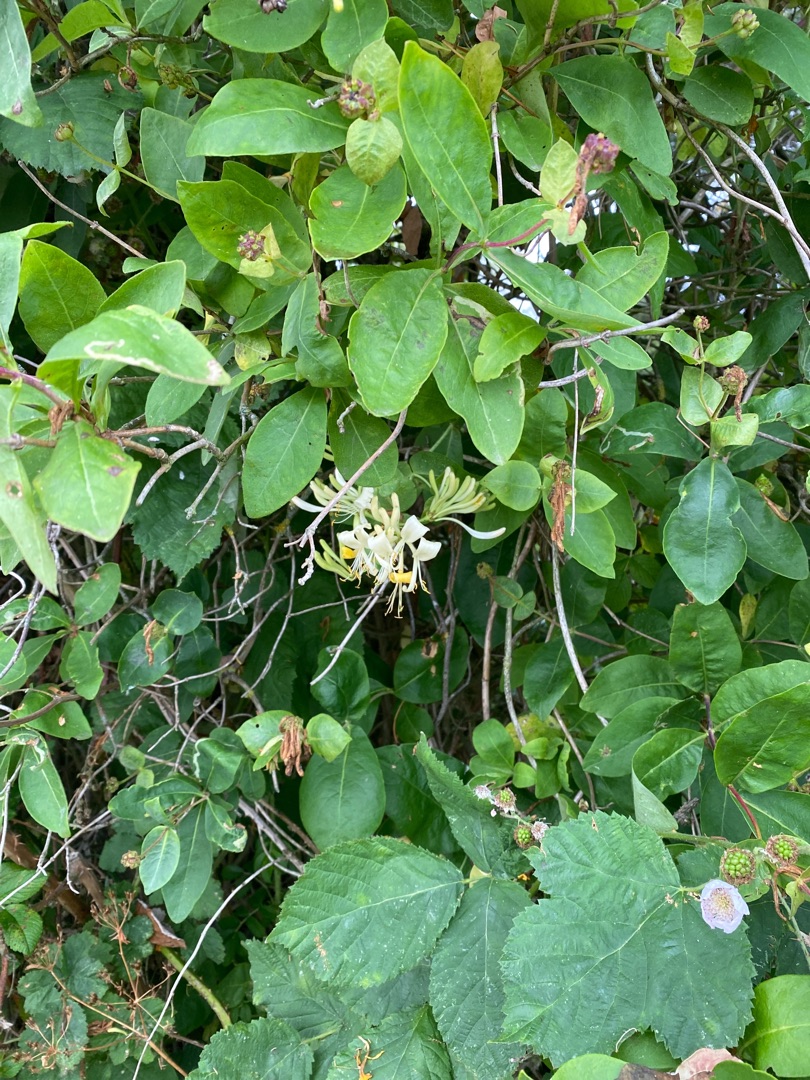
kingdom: Plantae
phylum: Tracheophyta
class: Magnoliopsida
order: Dipsacales
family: Caprifoliaceae
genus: Lonicera
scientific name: Lonicera periclymenum
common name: Almindelig gedeblad
